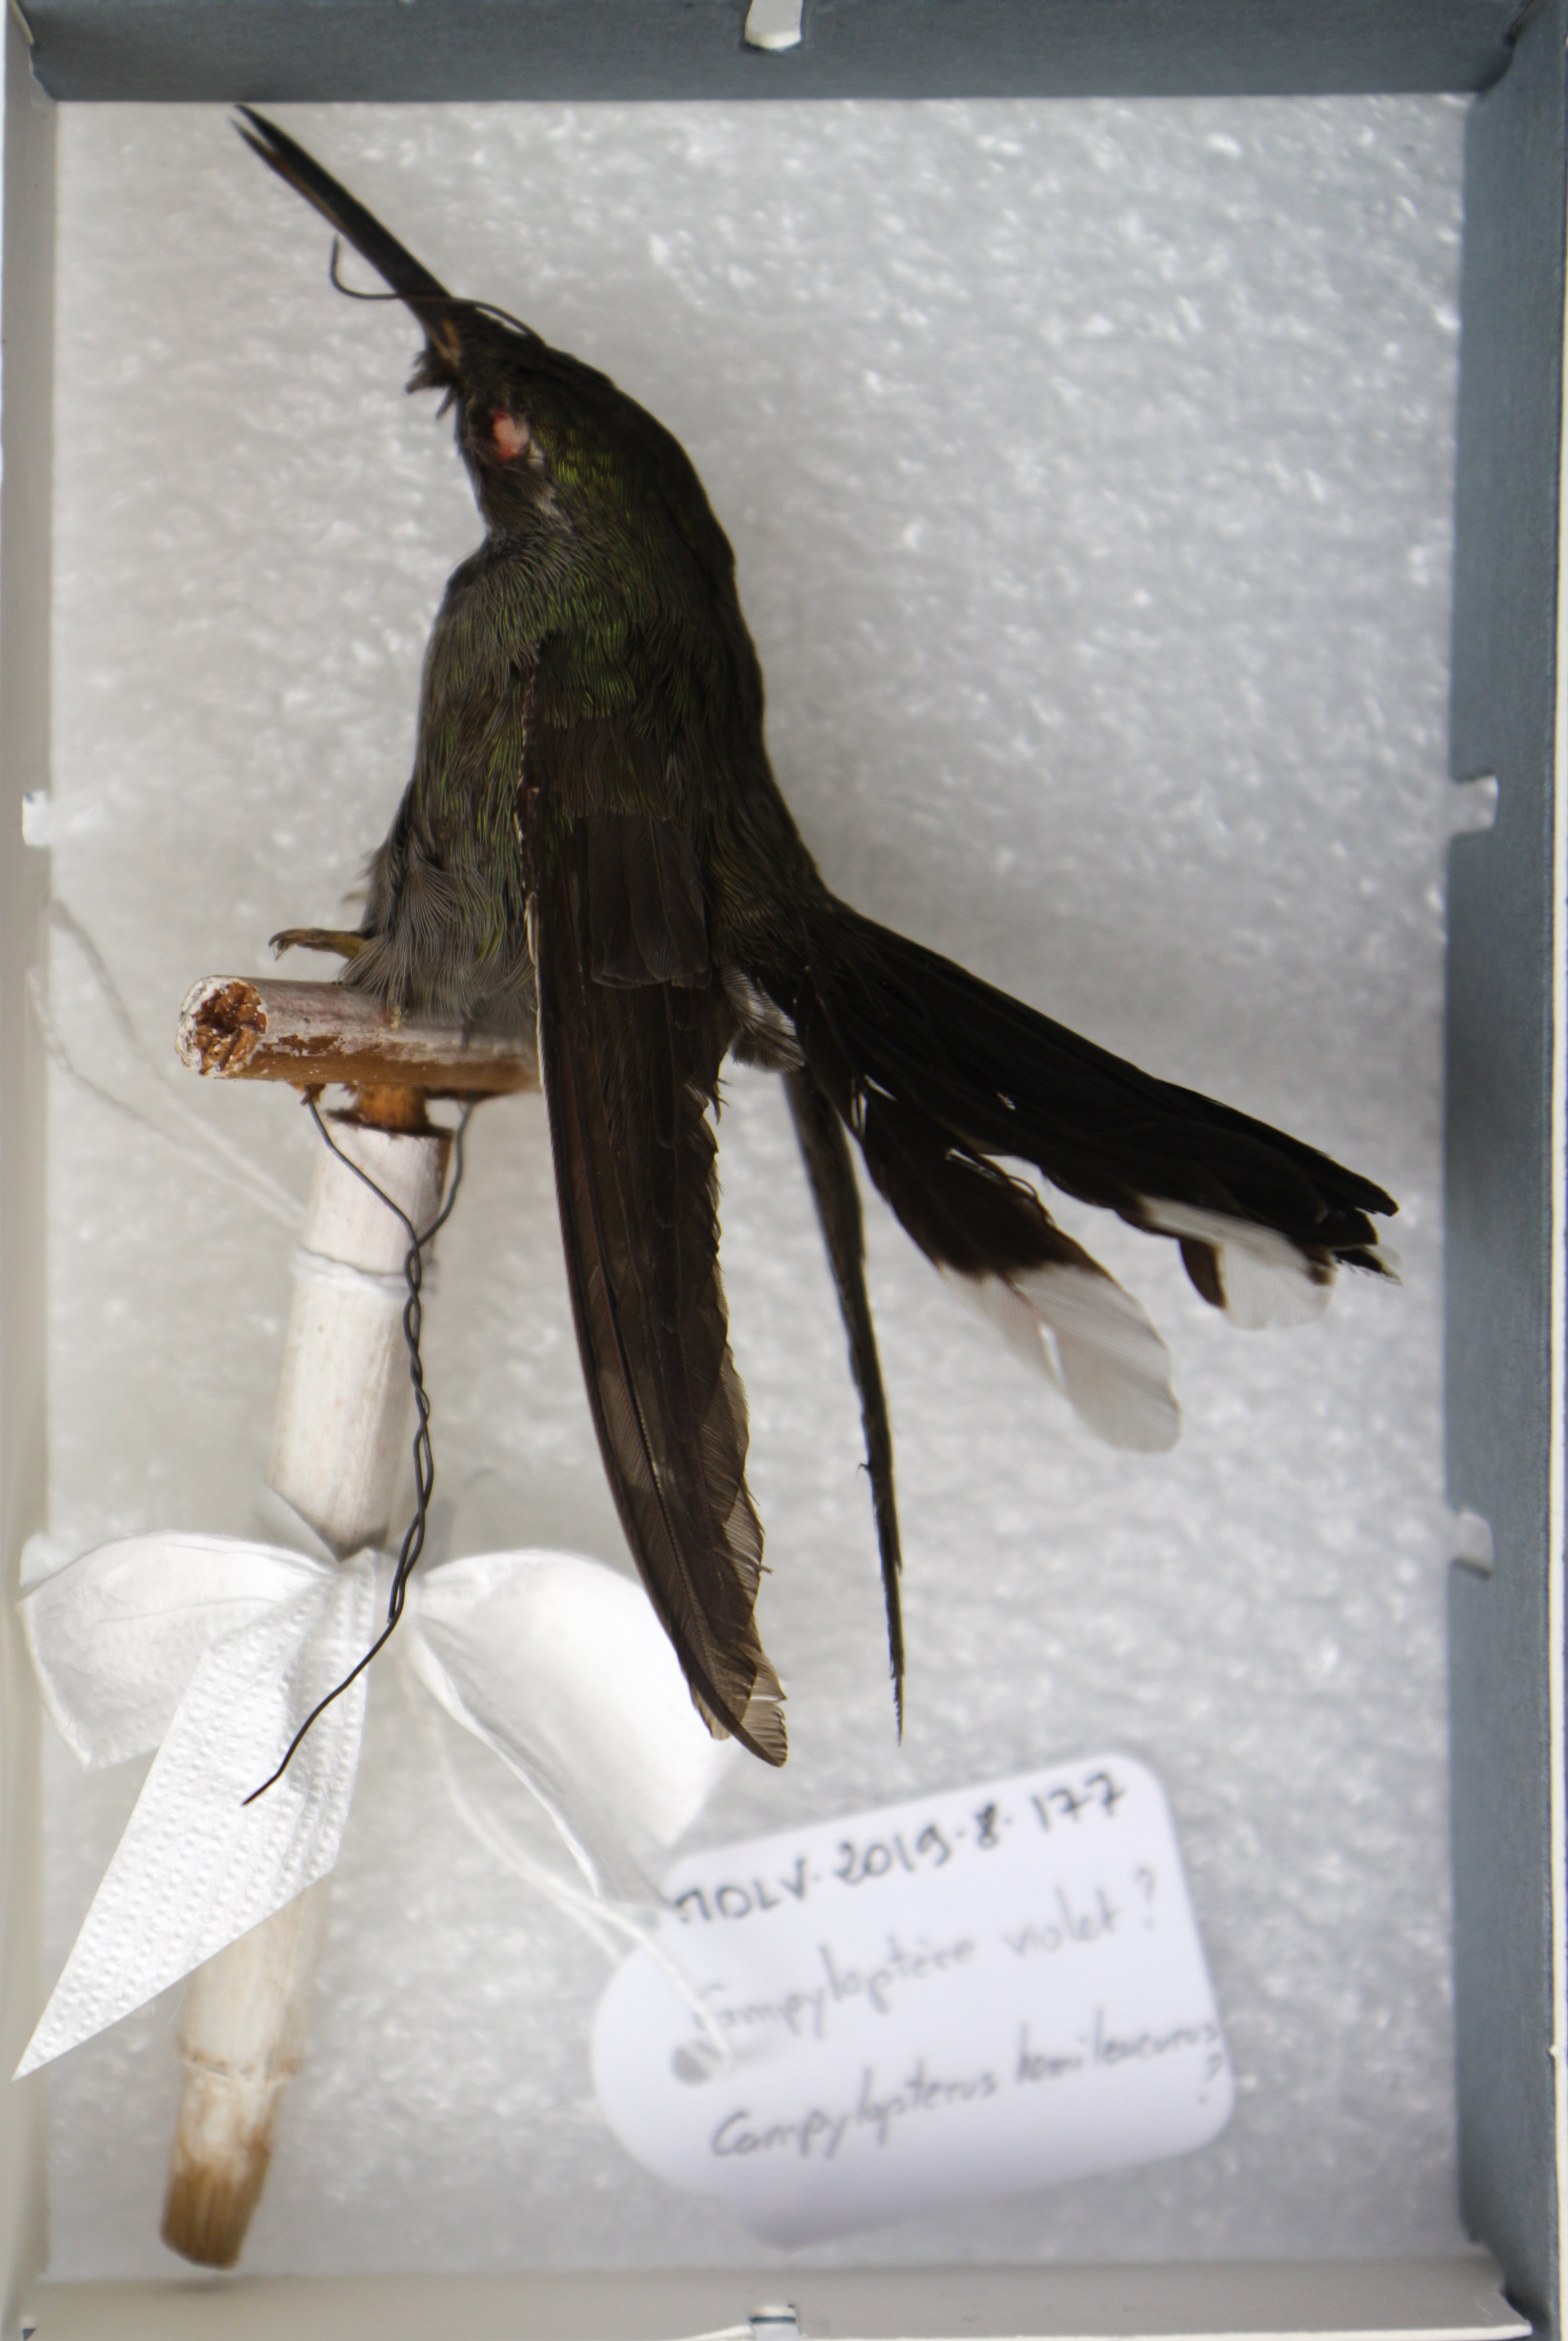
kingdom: Animalia
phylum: Chordata
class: Aves
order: Apodiformes
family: Trochilidae
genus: Campylopterus
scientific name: Campylopterus hemileucurus
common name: Violet sabrewing
